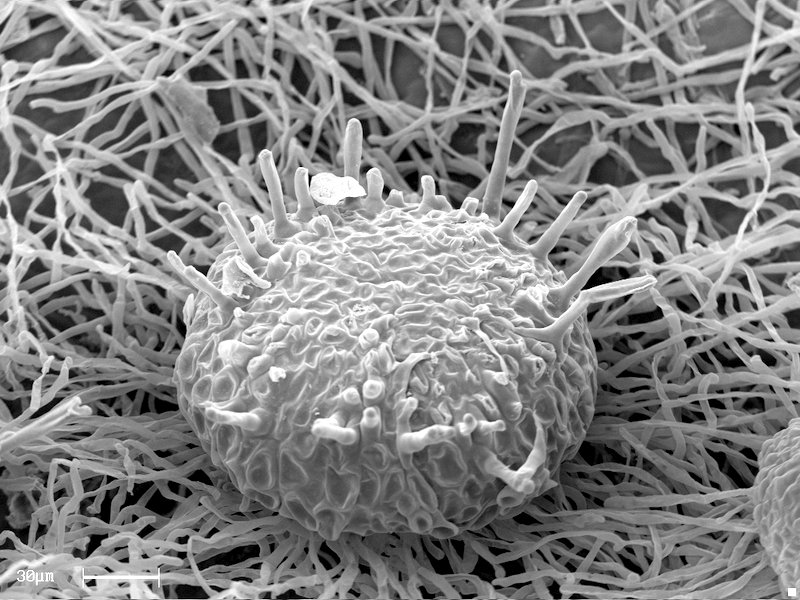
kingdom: Fungi
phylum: Ascomycota
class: Leotiomycetes
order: Helotiales
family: Erysiphaceae
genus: Sawadaea
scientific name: Sawadaea tulasnei
